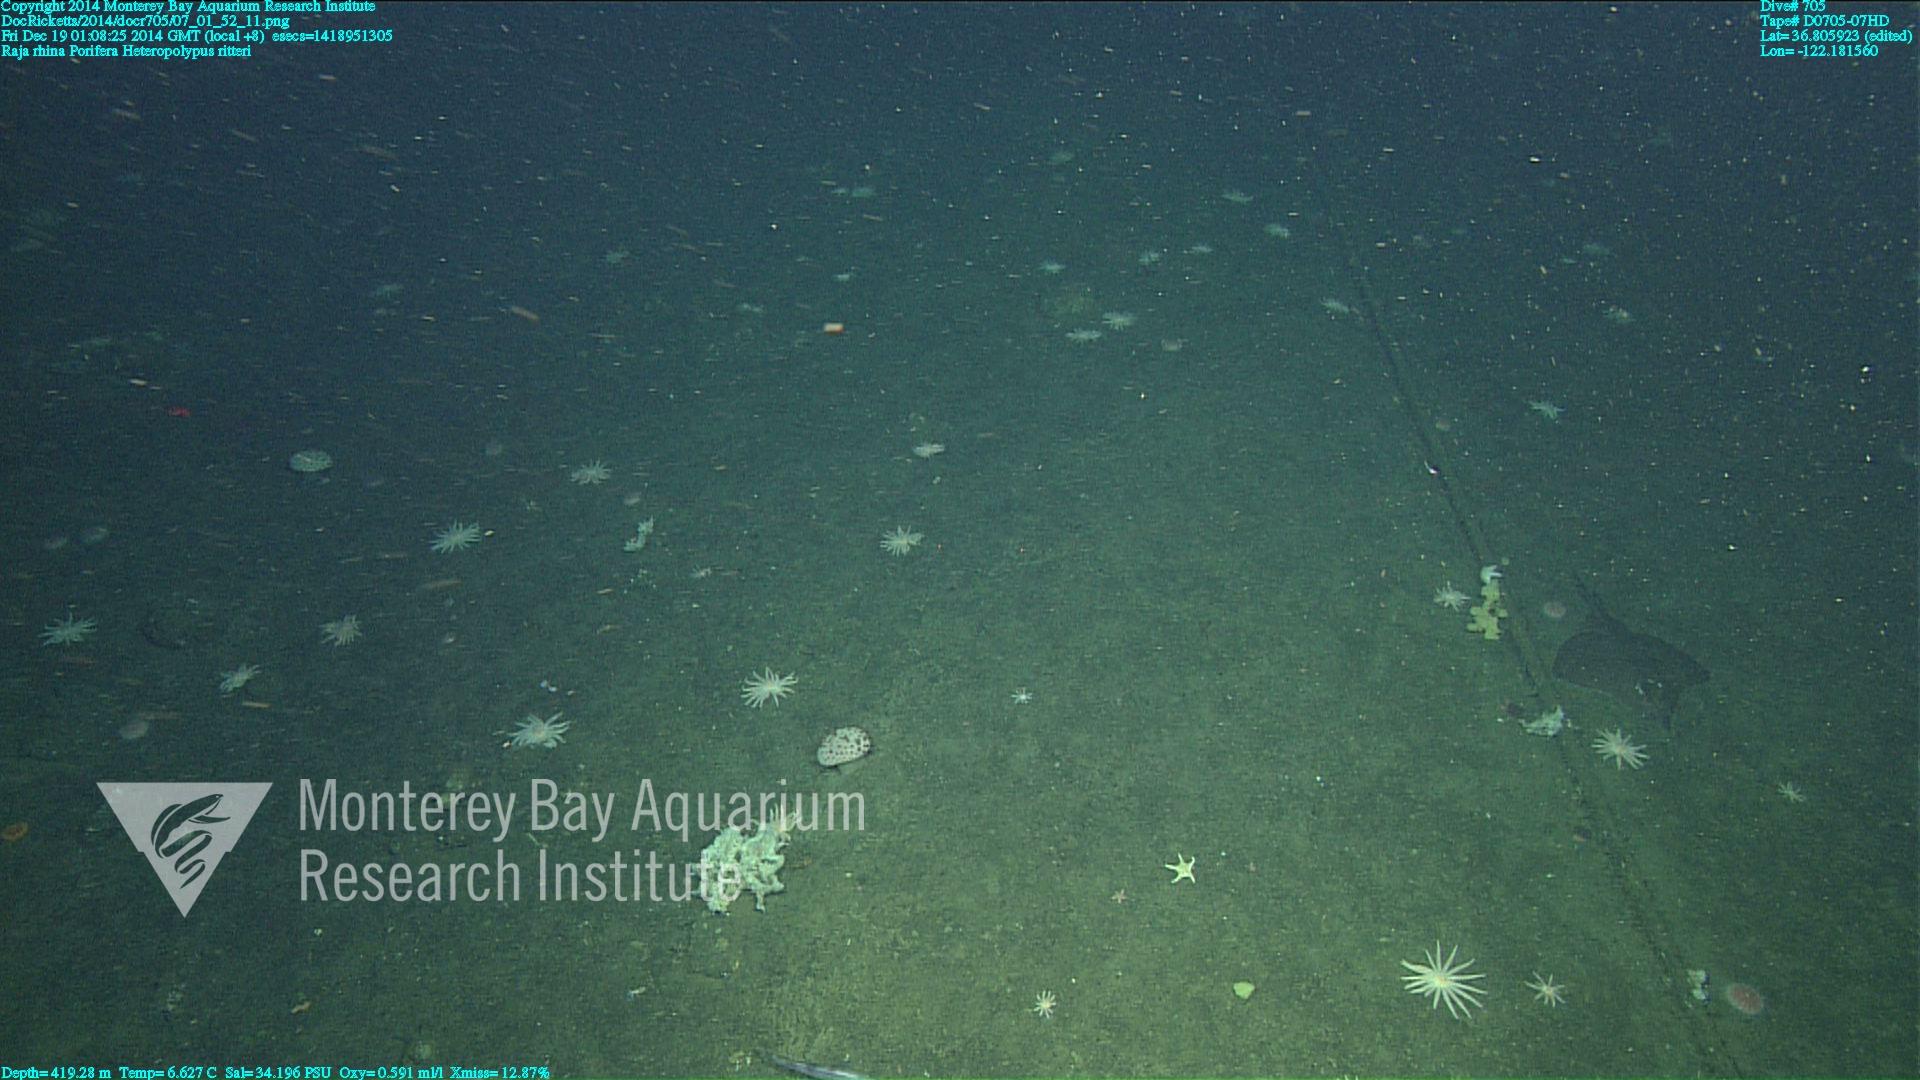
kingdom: Animalia
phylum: Cnidaria
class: Anthozoa
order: Scleralcyonacea
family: Coralliidae
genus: Heteropolypus
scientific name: Heteropolypus ritteri
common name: Ritter's soft coral
